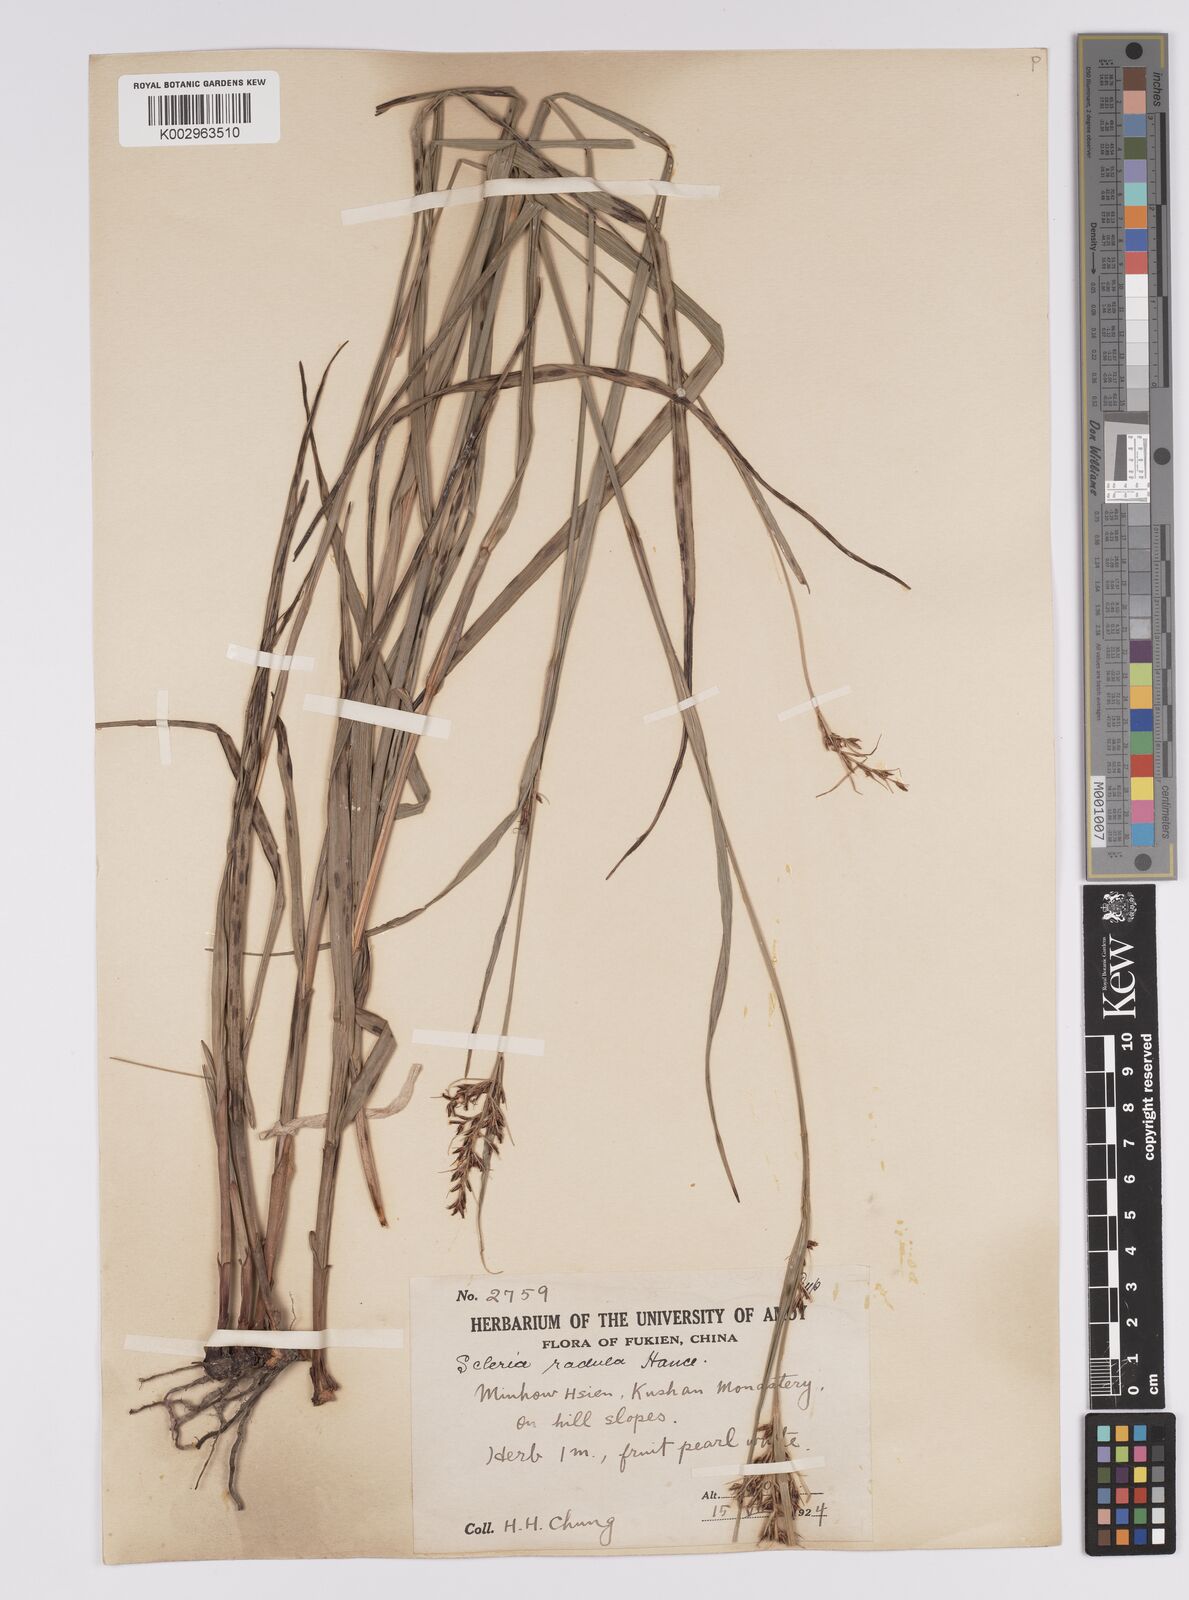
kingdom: Plantae
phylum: Tracheophyta
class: Liliopsida
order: Poales
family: Cyperaceae
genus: Scleria
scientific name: Scleria radula
